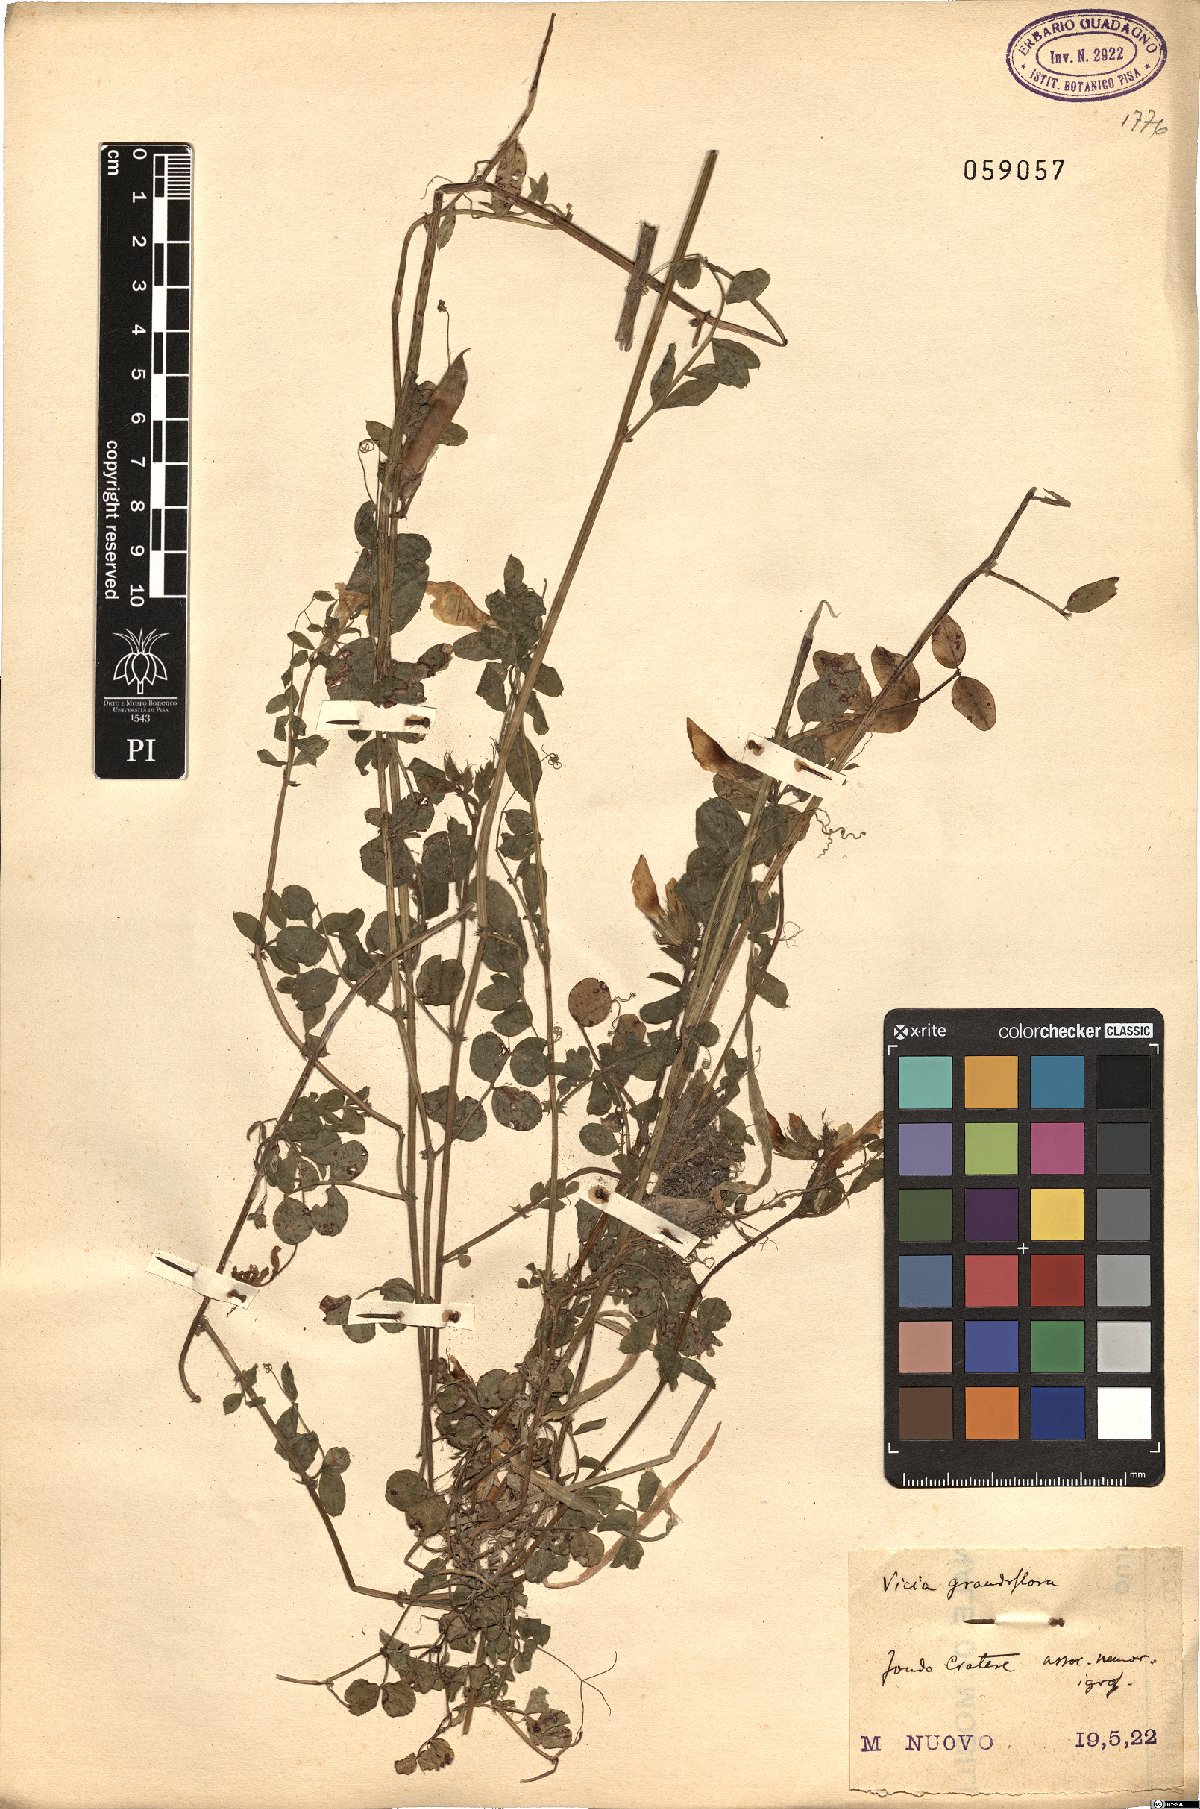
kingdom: Plantae
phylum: Tracheophyta
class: Magnoliopsida
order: Fabales
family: Fabaceae
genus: Vicia
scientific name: Vicia grandiflora
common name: Large yellow vetch
